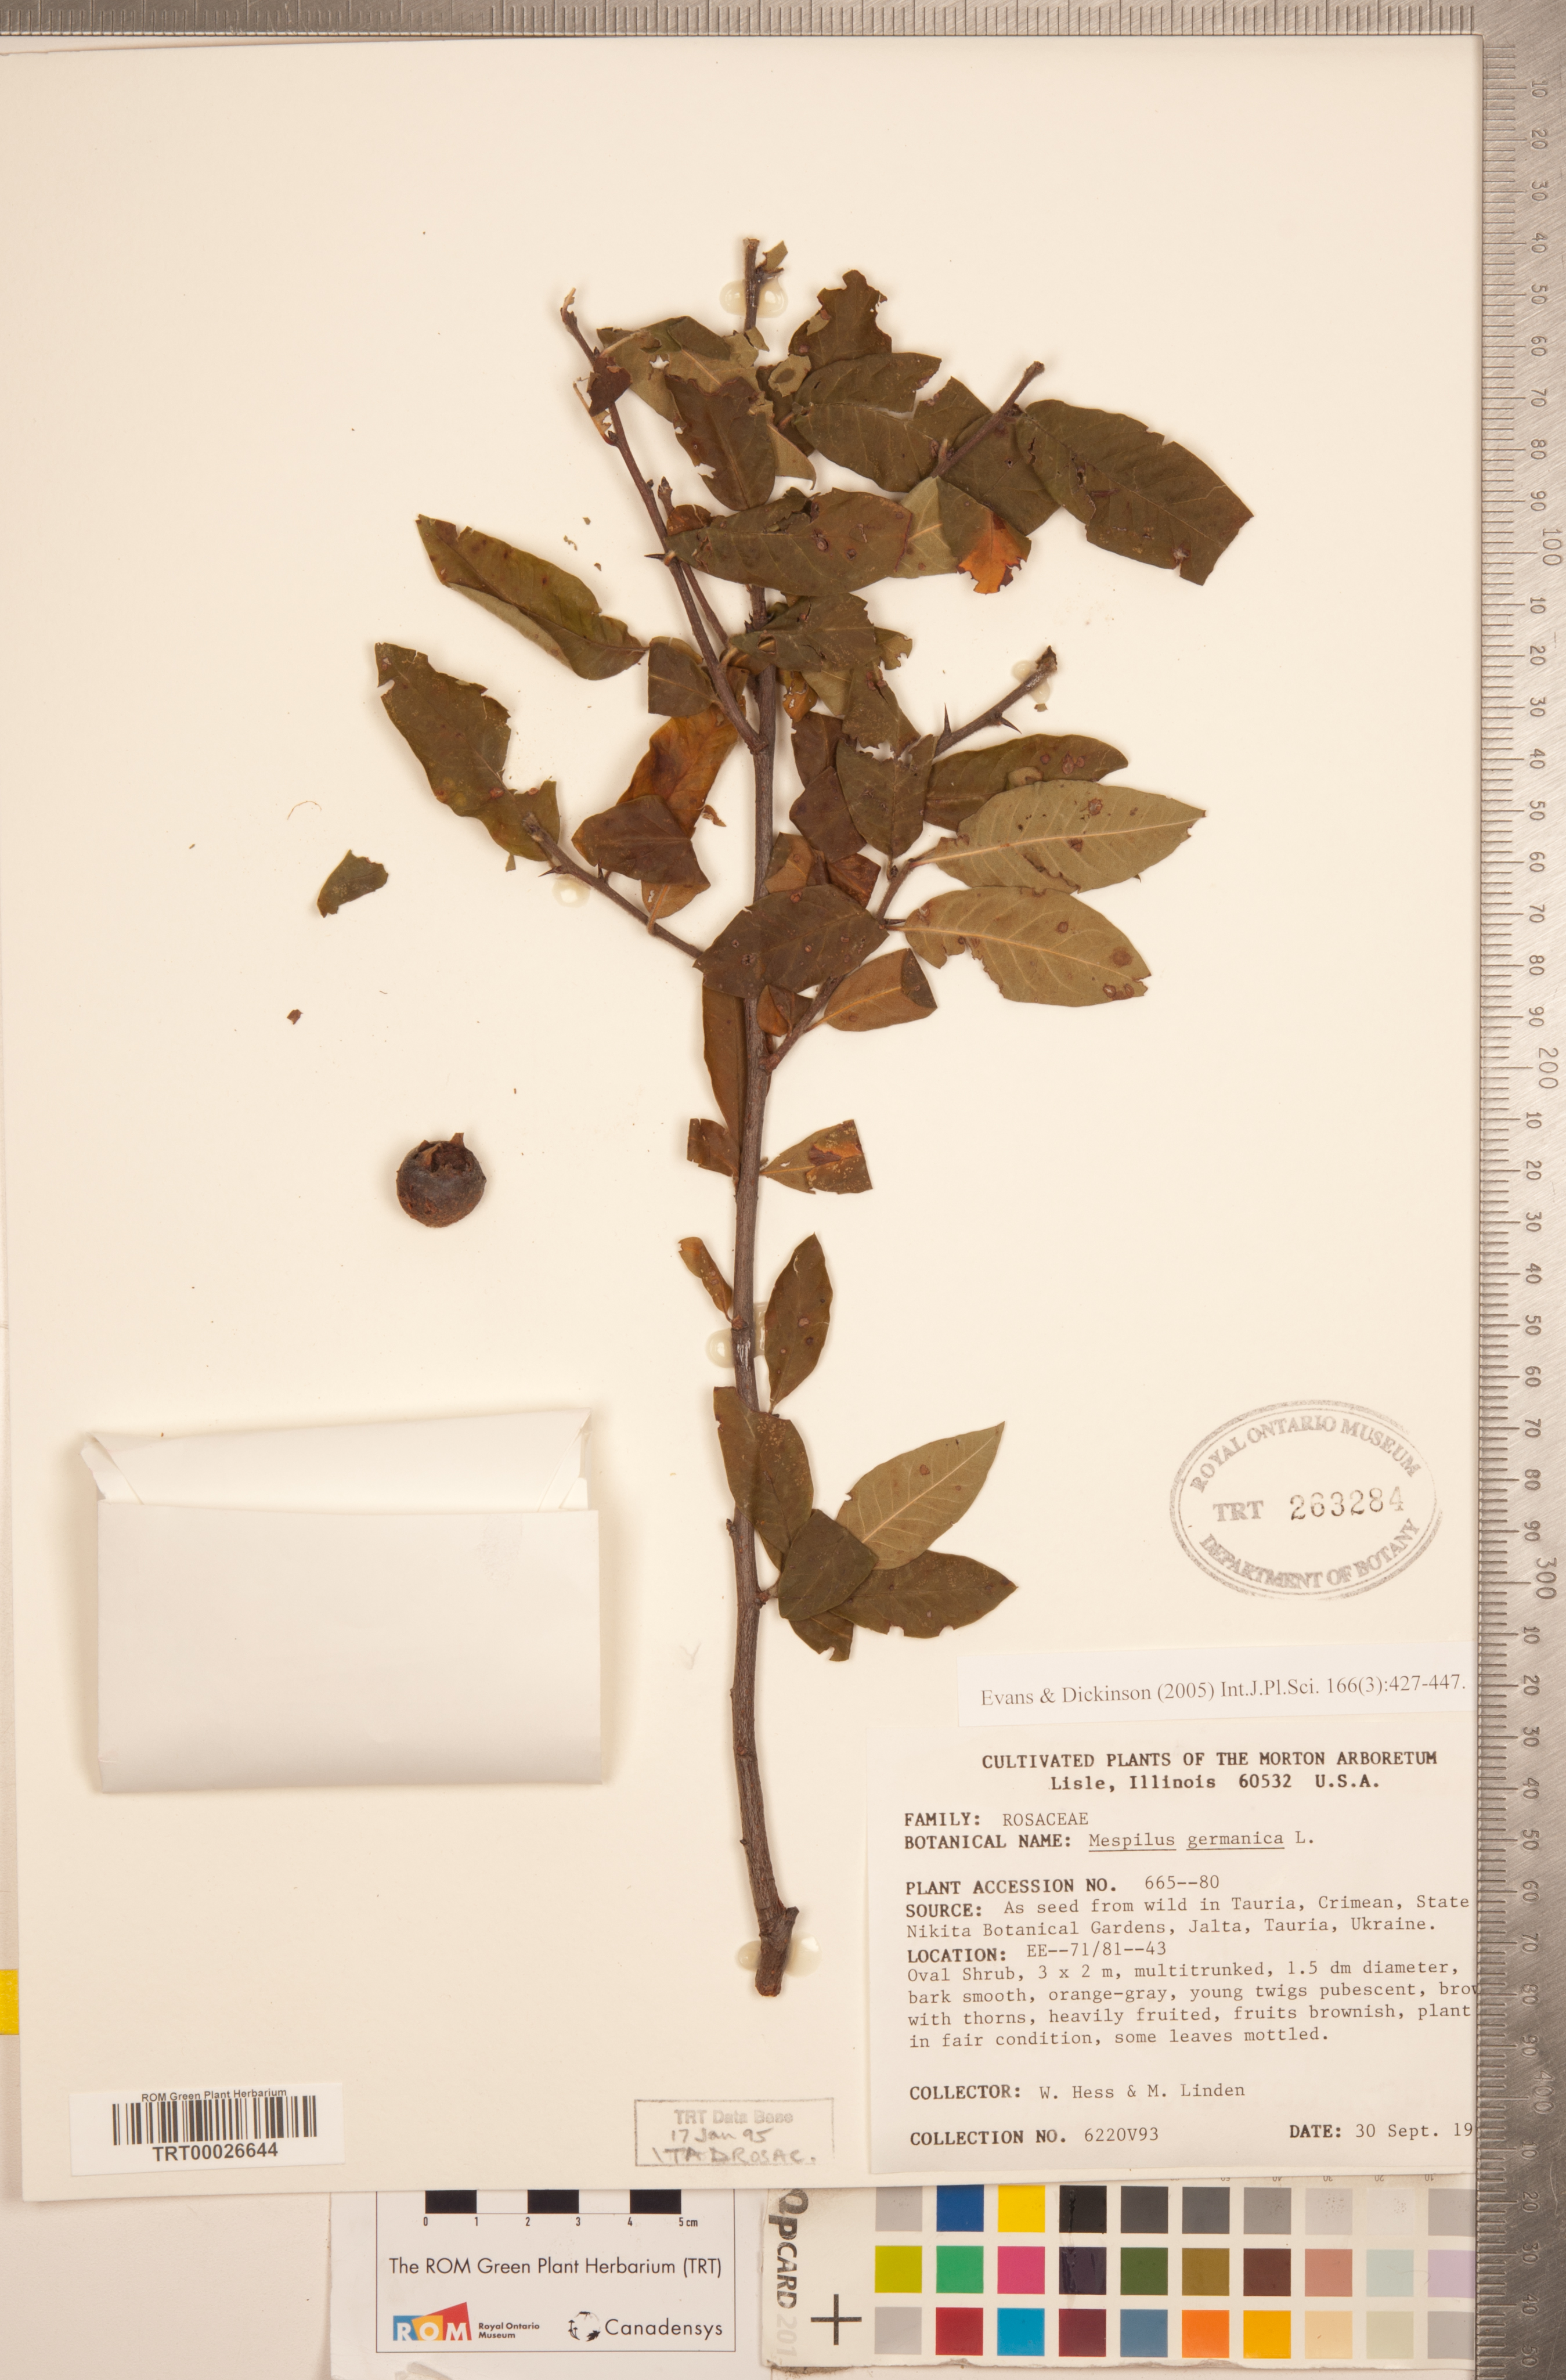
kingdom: Plantae
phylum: Tracheophyta
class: Magnoliopsida
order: Rosales
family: Rosaceae
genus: Mespilus
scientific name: Mespilus germanica
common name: Medlar
